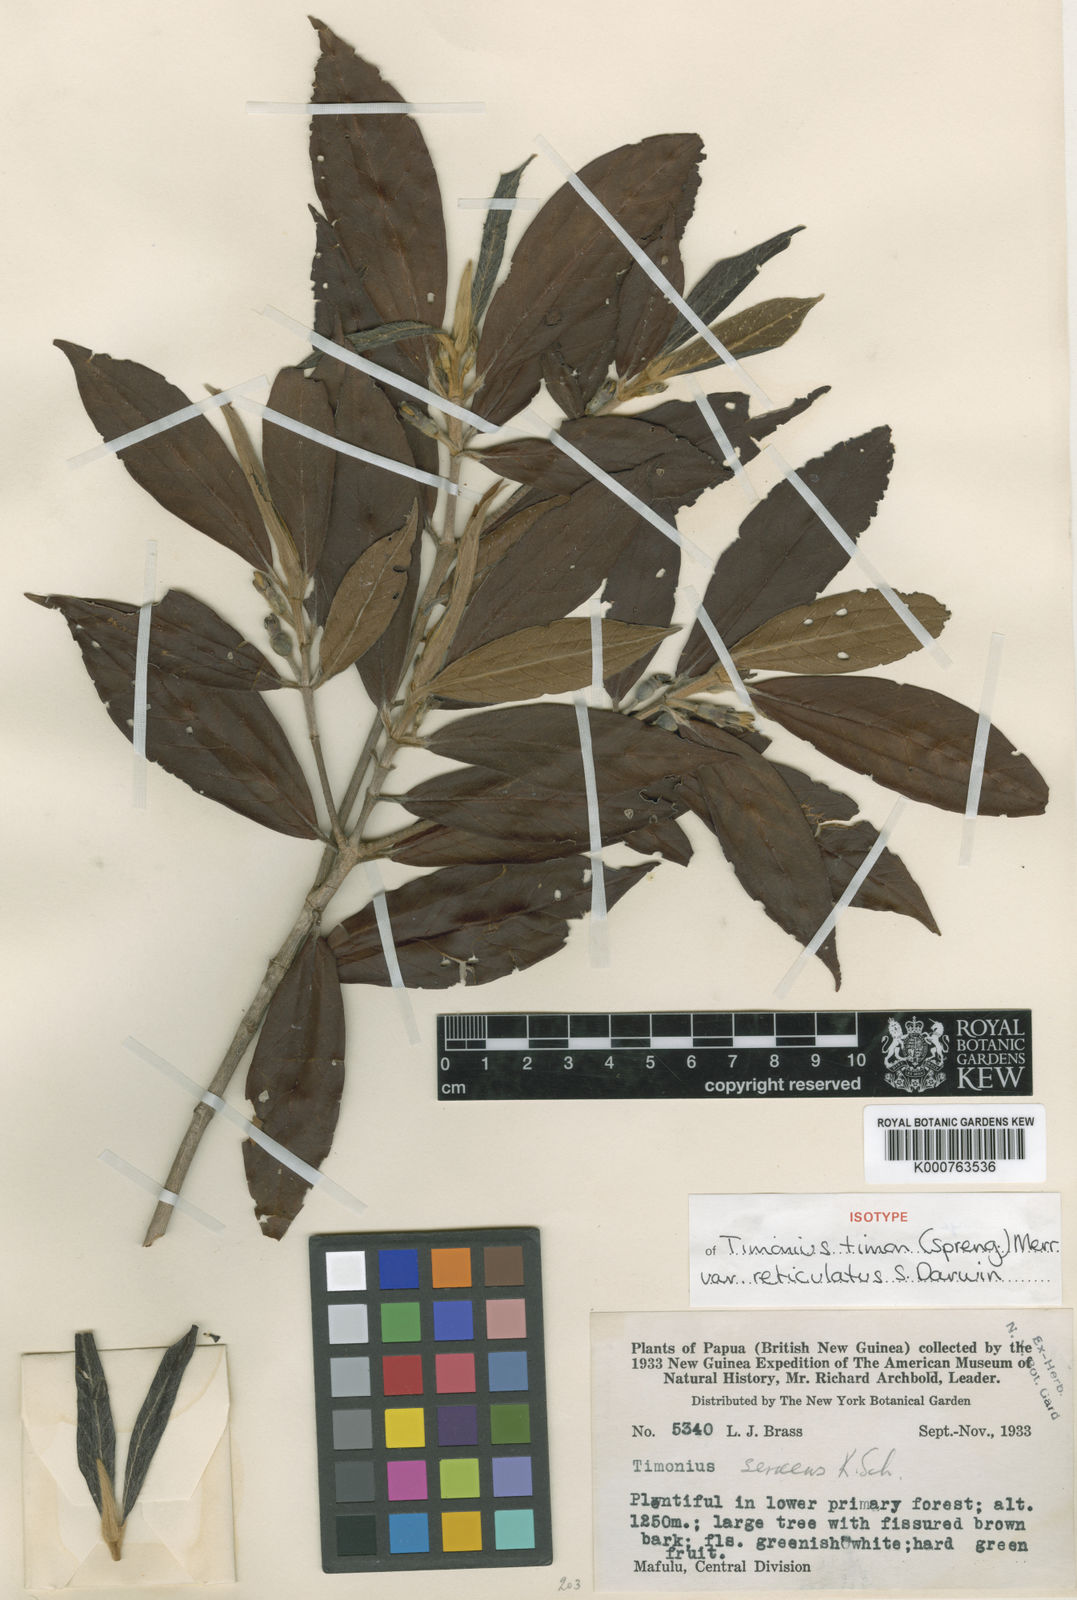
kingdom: Plantae
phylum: Tracheophyta
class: Magnoliopsida
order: Gentianales
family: Rubiaceae
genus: Timonius
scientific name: Timonius timon
